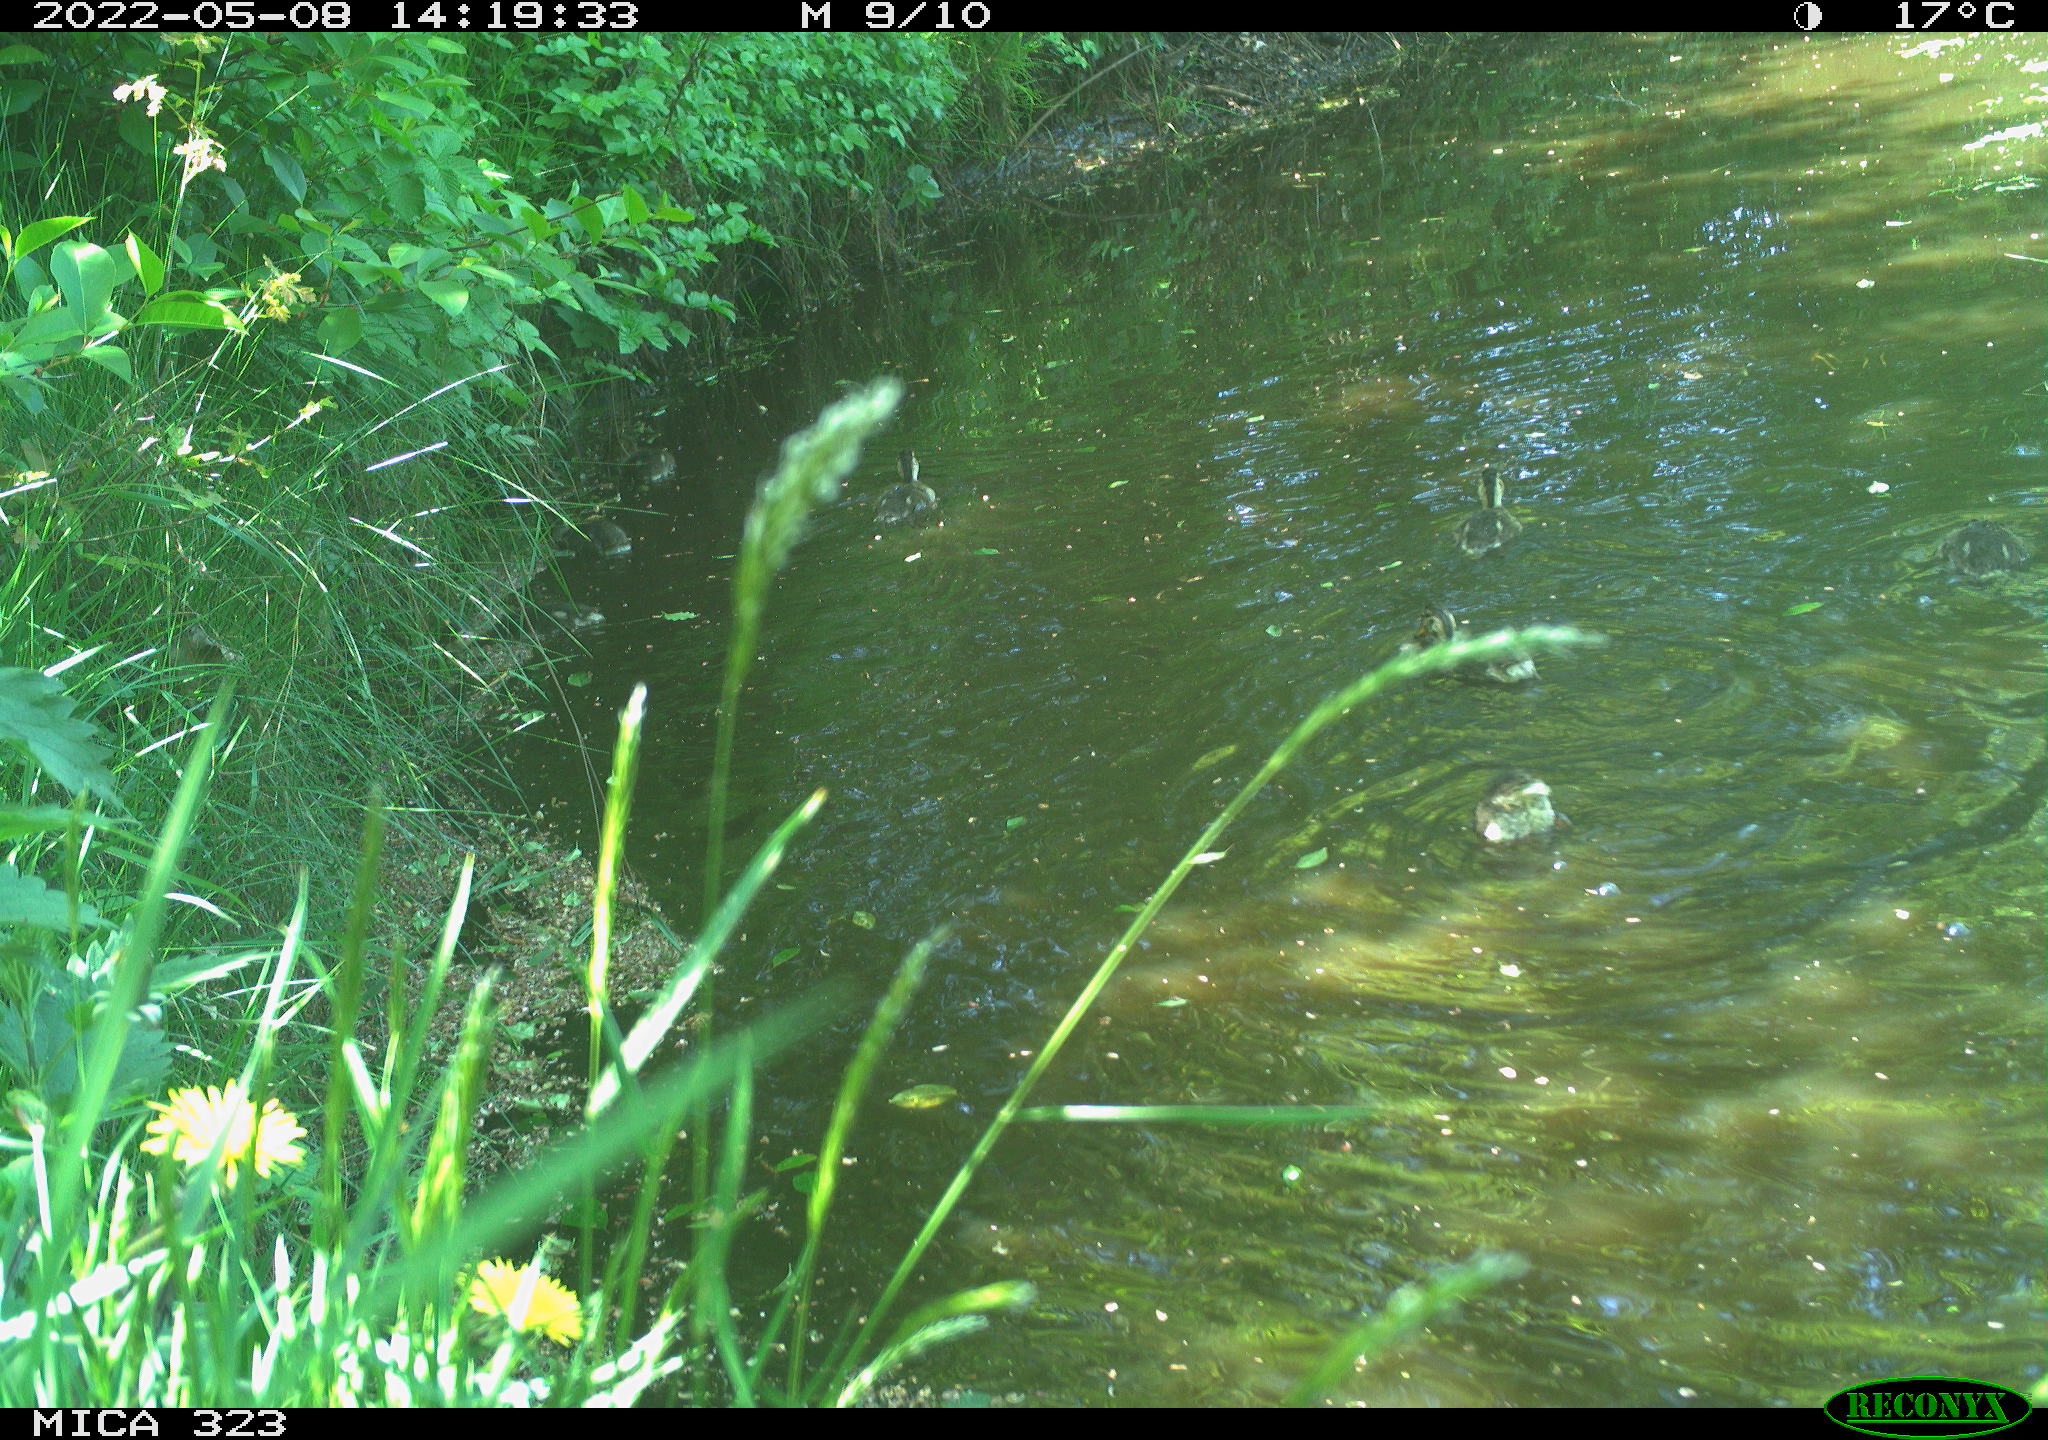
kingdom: Animalia
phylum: Chordata
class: Aves
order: Anseriformes
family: Anatidae
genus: Anas
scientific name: Anas
